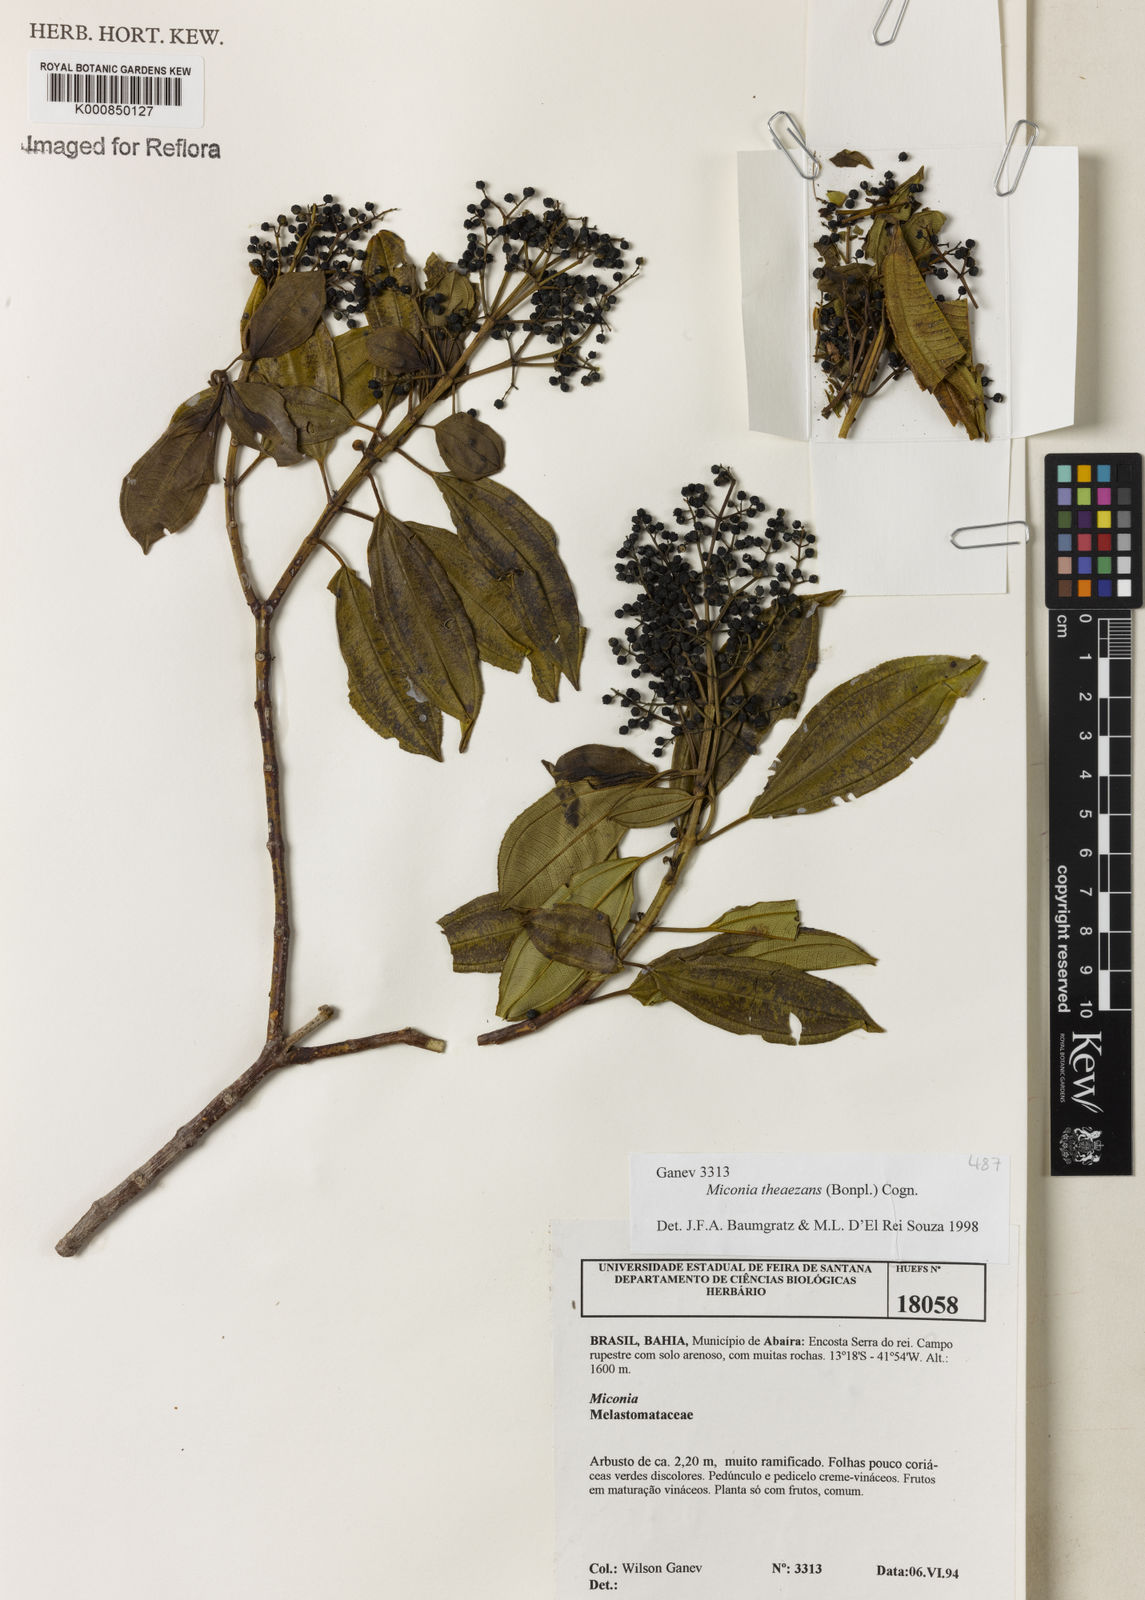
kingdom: Plantae
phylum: Tracheophyta
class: Magnoliopsida
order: Myrtales
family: Melastomataceae
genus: Miconia
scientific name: Miconia
